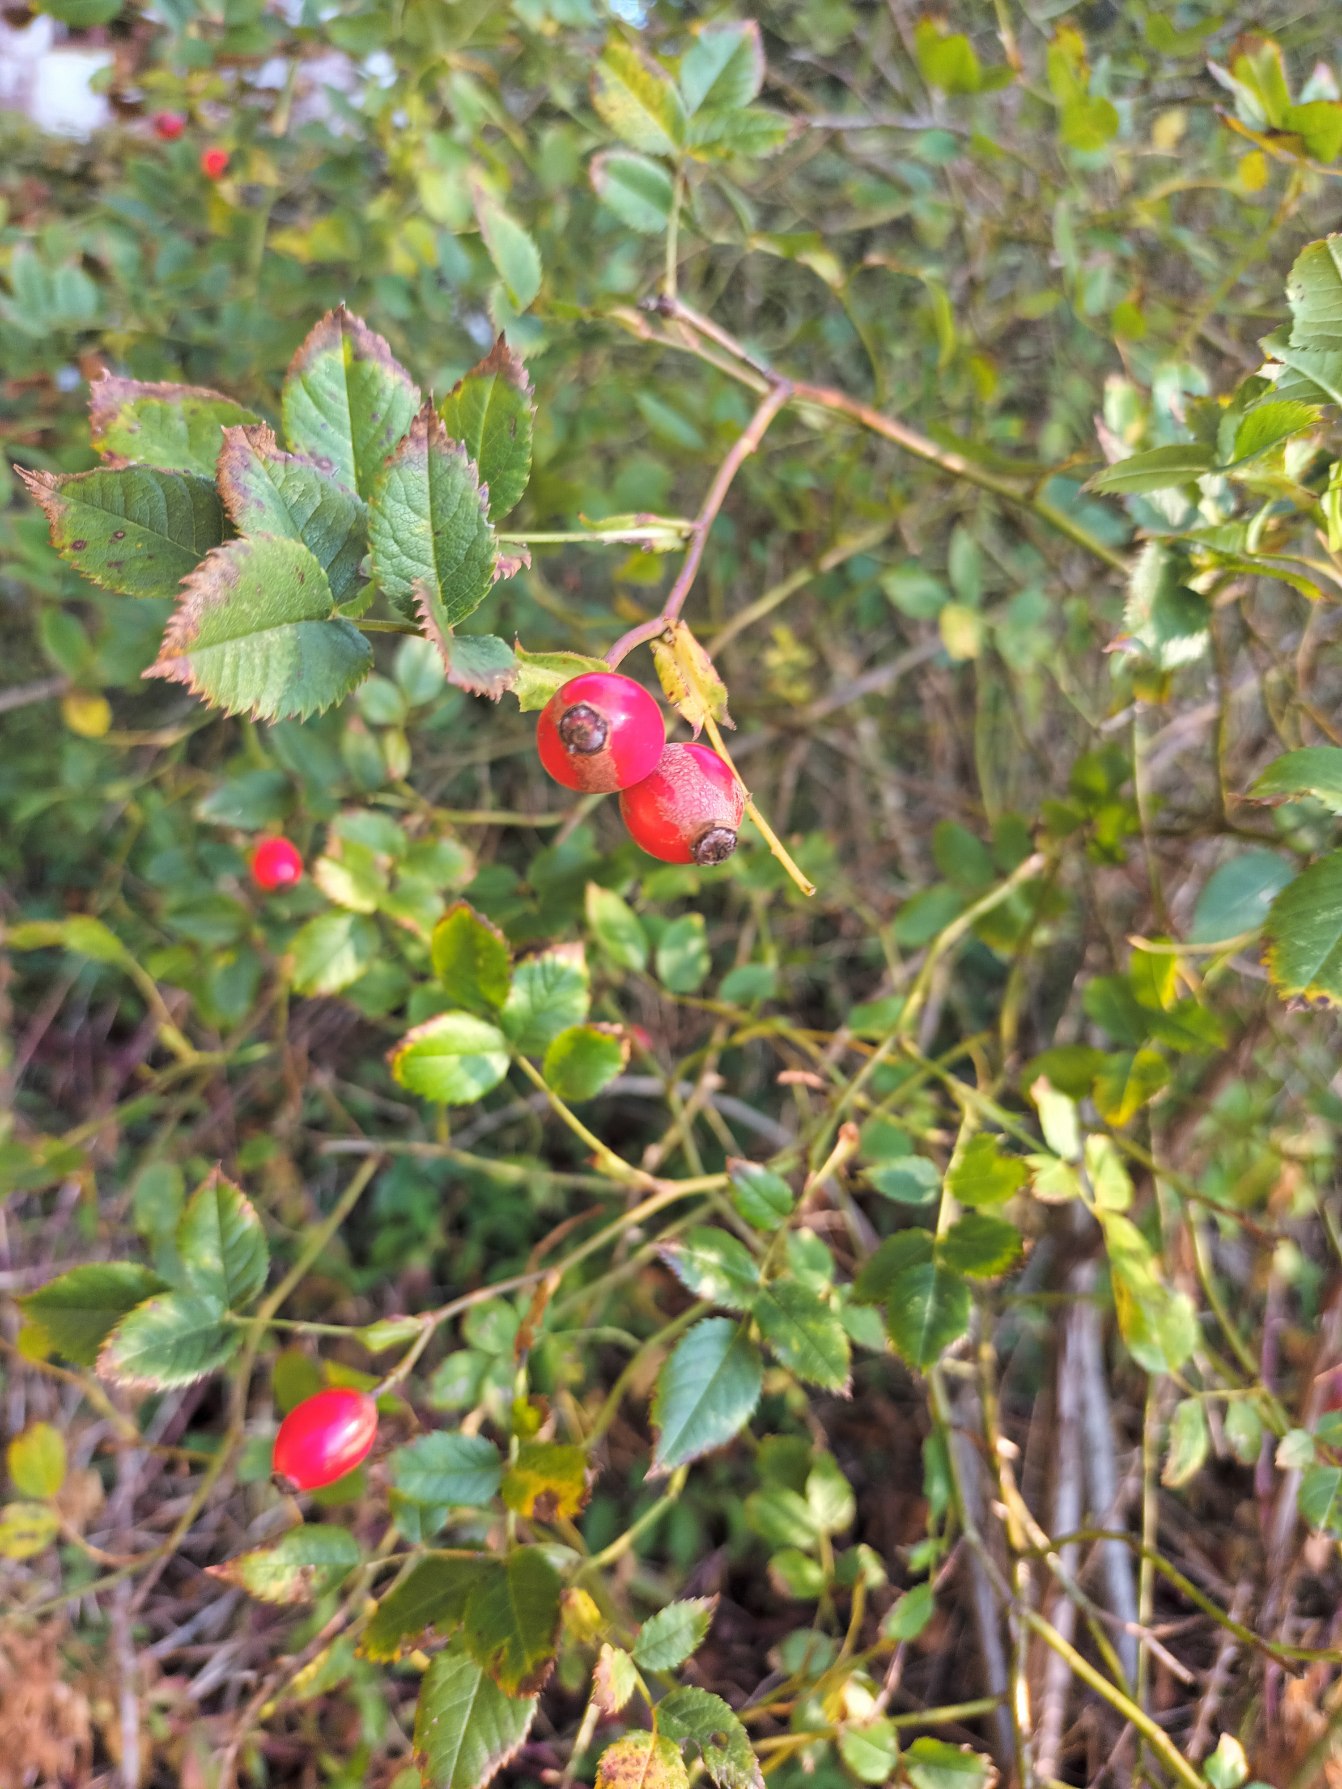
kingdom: Plantae
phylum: Tracheophyta
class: Magnoliopsida
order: Rosales
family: Rosaceae
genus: Rosa
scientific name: Rosa canina
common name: Glat hunde-rose
